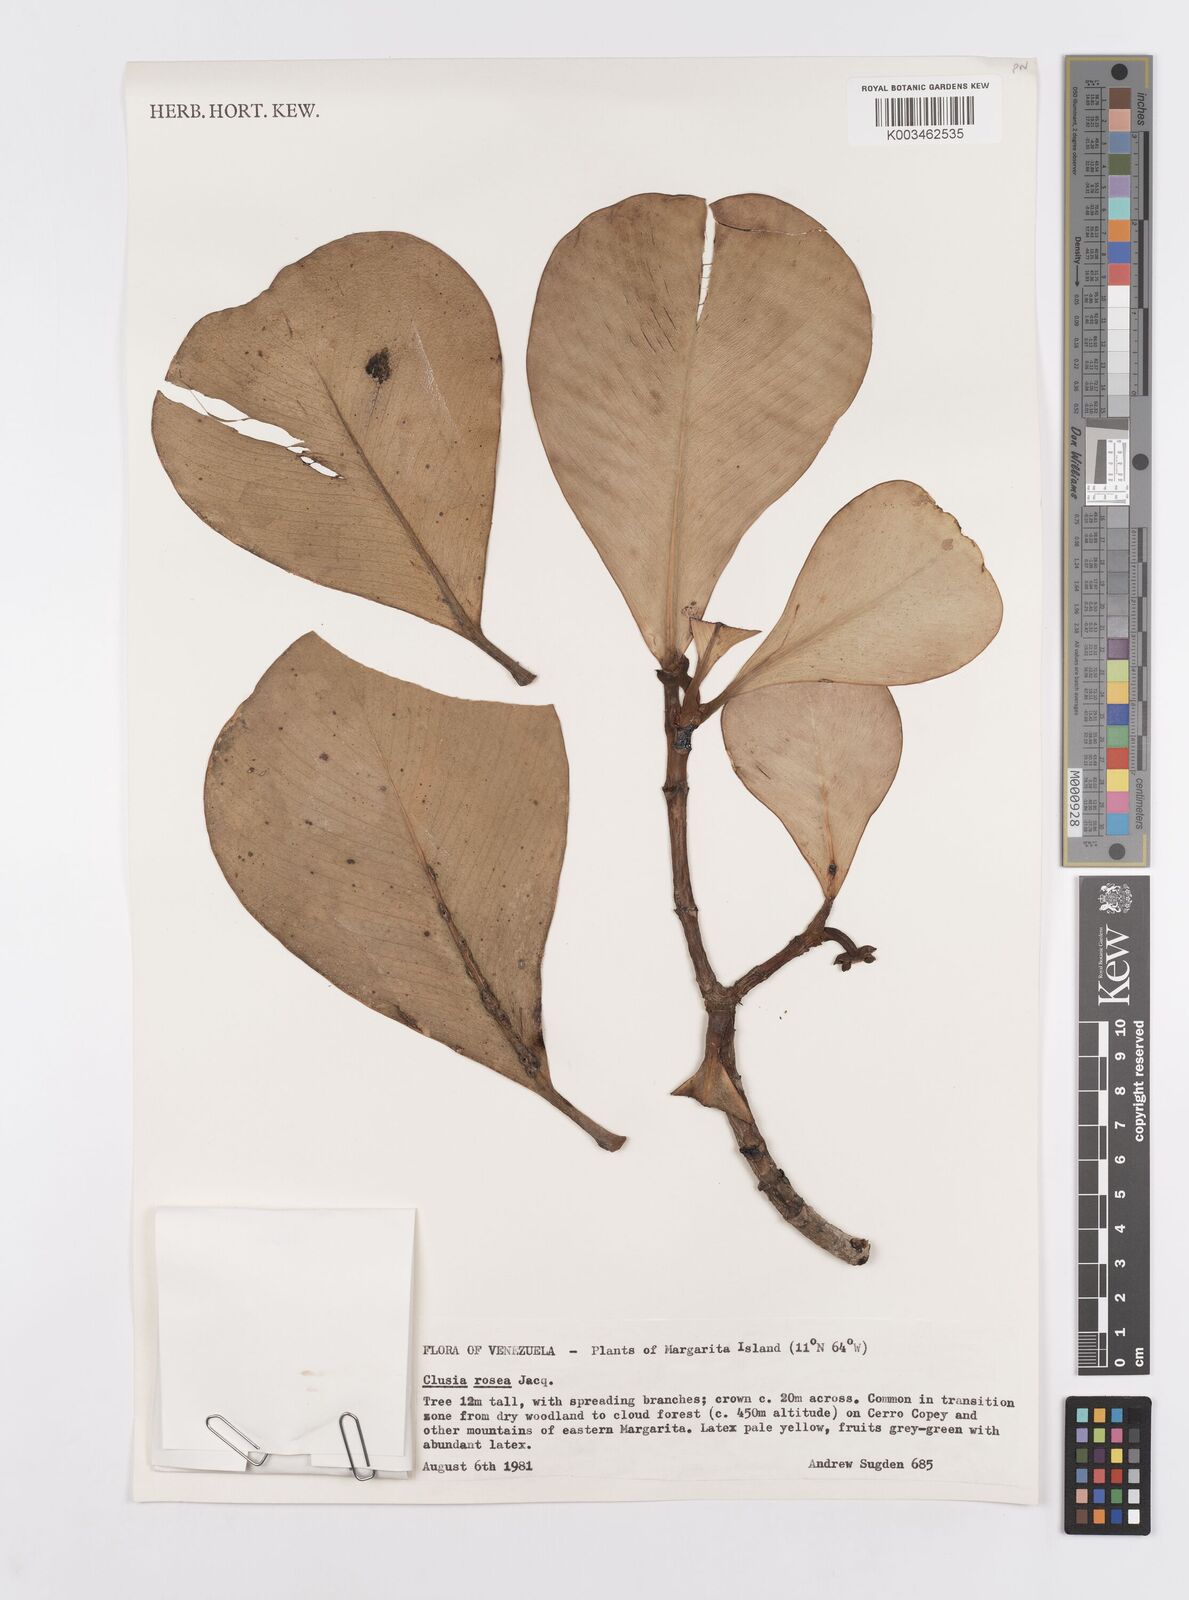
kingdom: Plantae
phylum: Tracheophyta
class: Magnoliopsida
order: Malpighiales
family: Clusiaceae
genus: Clusia
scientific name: Clusia rosea
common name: Scotch attorney
